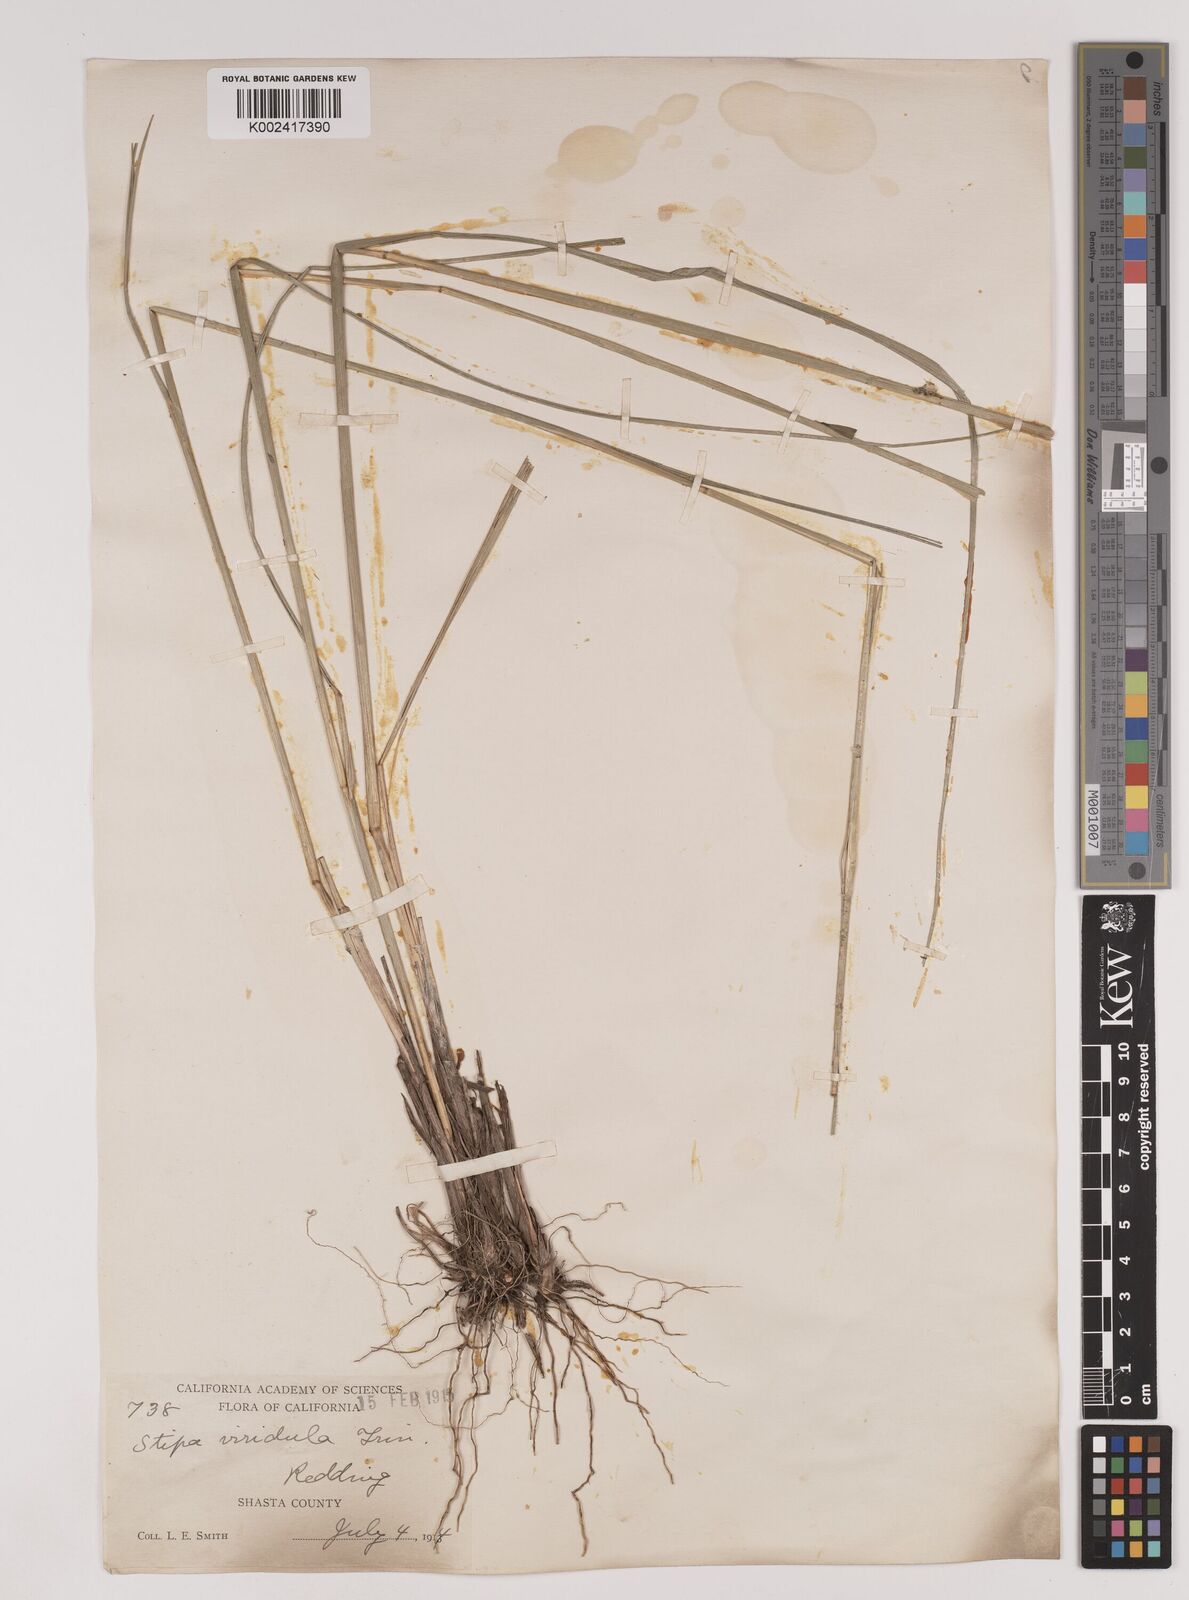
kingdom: Plantae
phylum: Tracheophyta
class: Liliopsida
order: Poales
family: Poaceae
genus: Nassella
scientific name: Nassella viridula
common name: Green needlegrass
